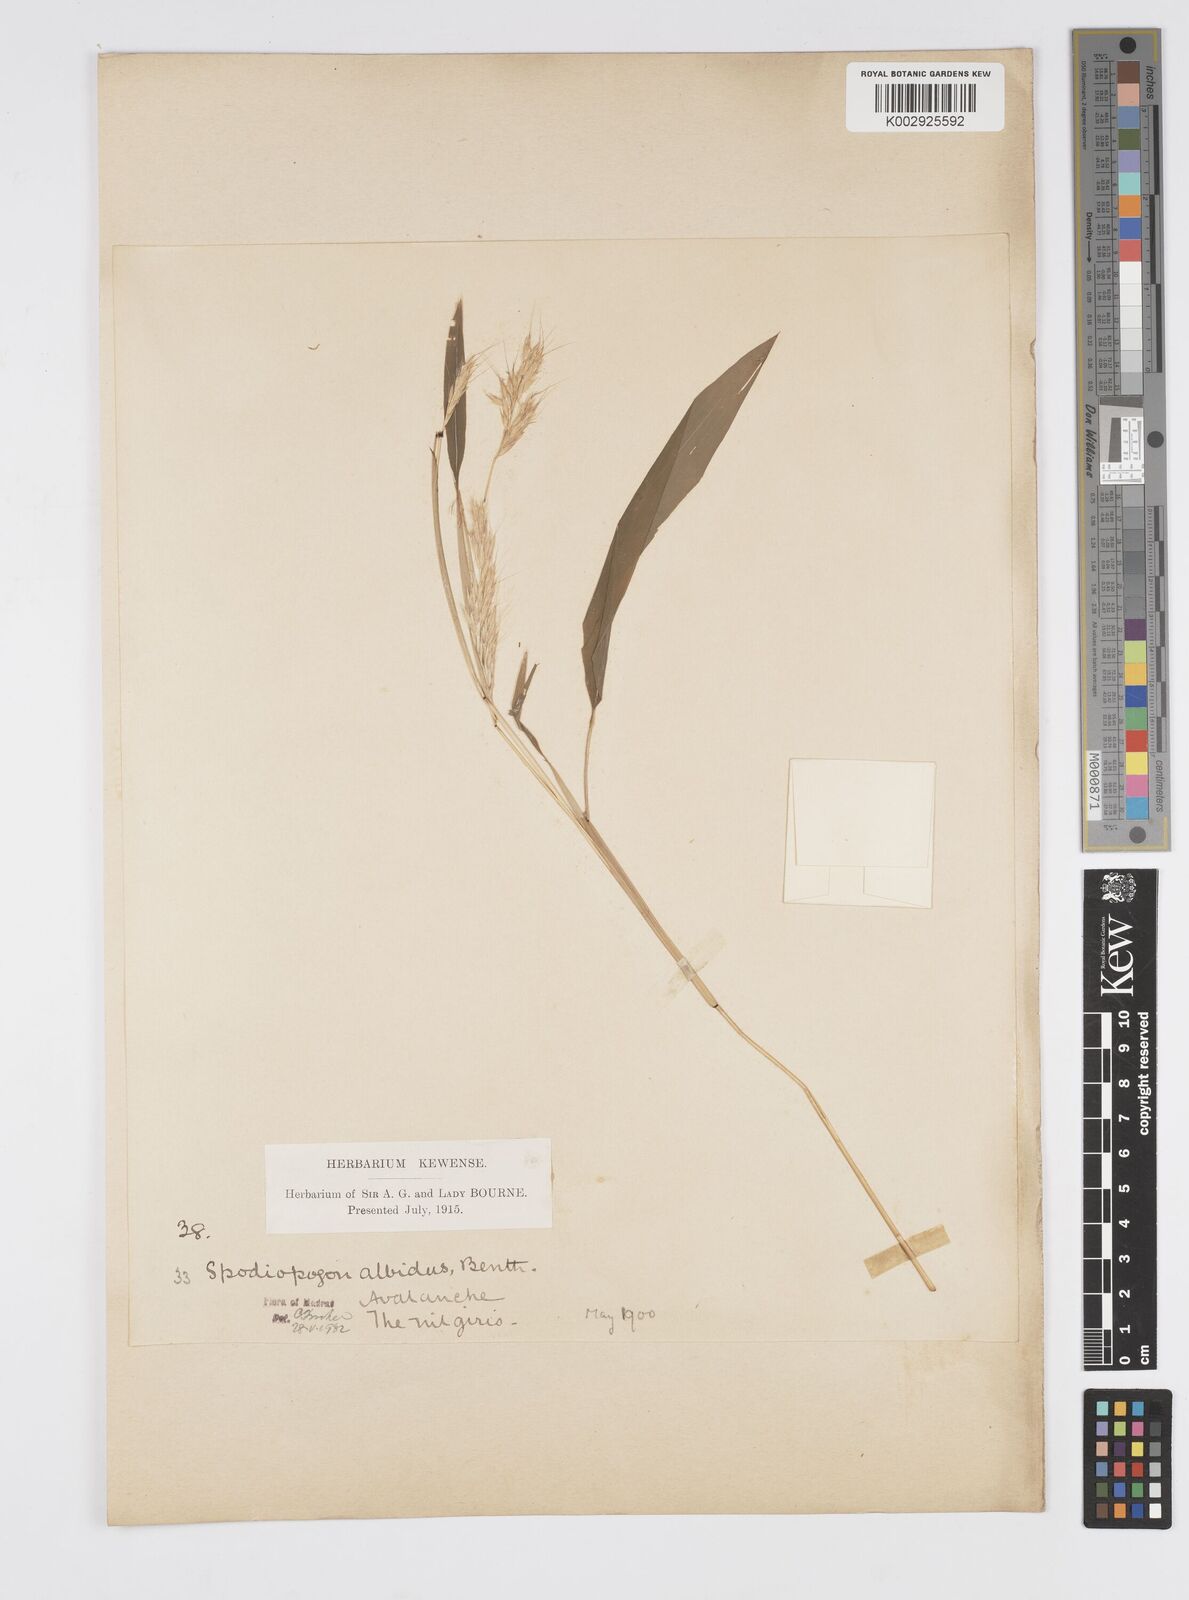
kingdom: Plantae
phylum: Tracheophyta
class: Liliopsida
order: Poales
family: Poaceae
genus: Spodiopogon
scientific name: Spodiopogon rhizophorus
